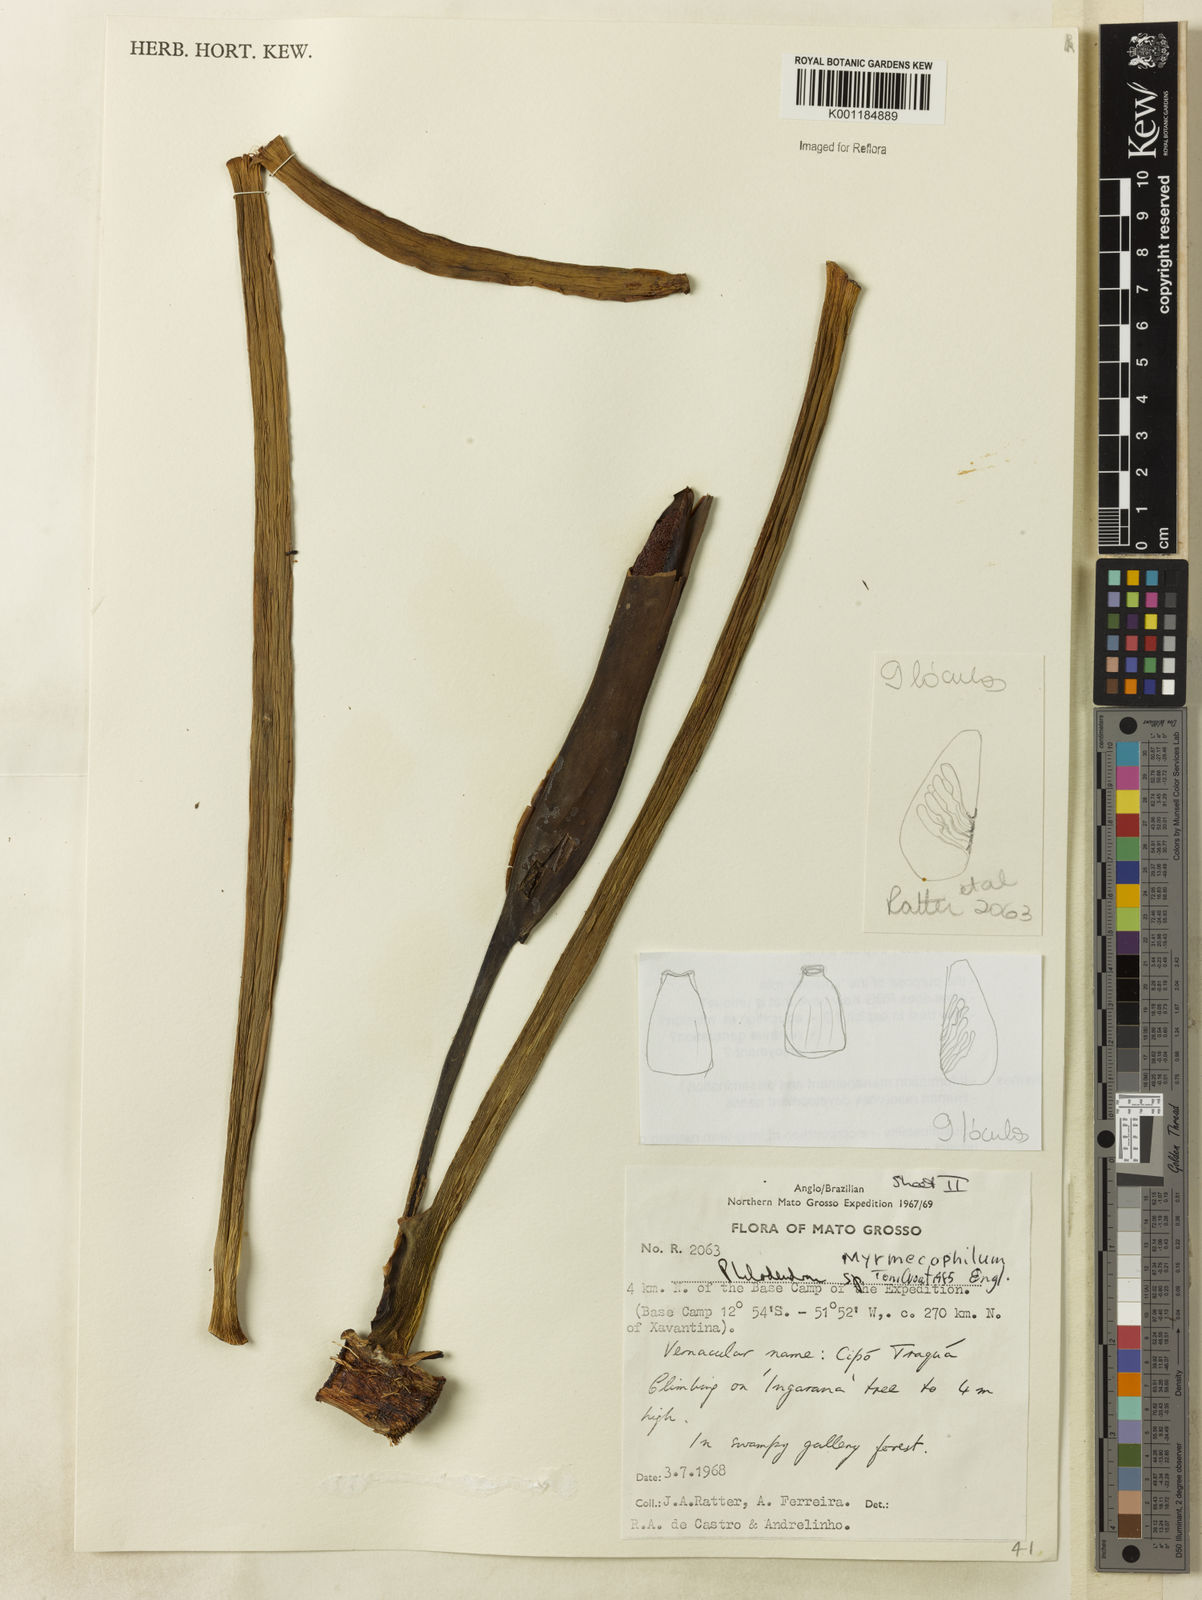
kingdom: Plantae
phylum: Tracheophyta
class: Liliopsida
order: Alismatales
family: Araceae
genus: Philodendron
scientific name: Philodendron wullschlaegelii
